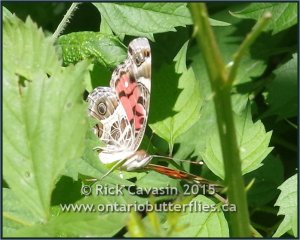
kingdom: Animalia
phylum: Arthropoda
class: Insecta
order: Lepidoptera
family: Nymphalidae
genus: Vanessa
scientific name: Vanessa virginiensis
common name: American Lady
